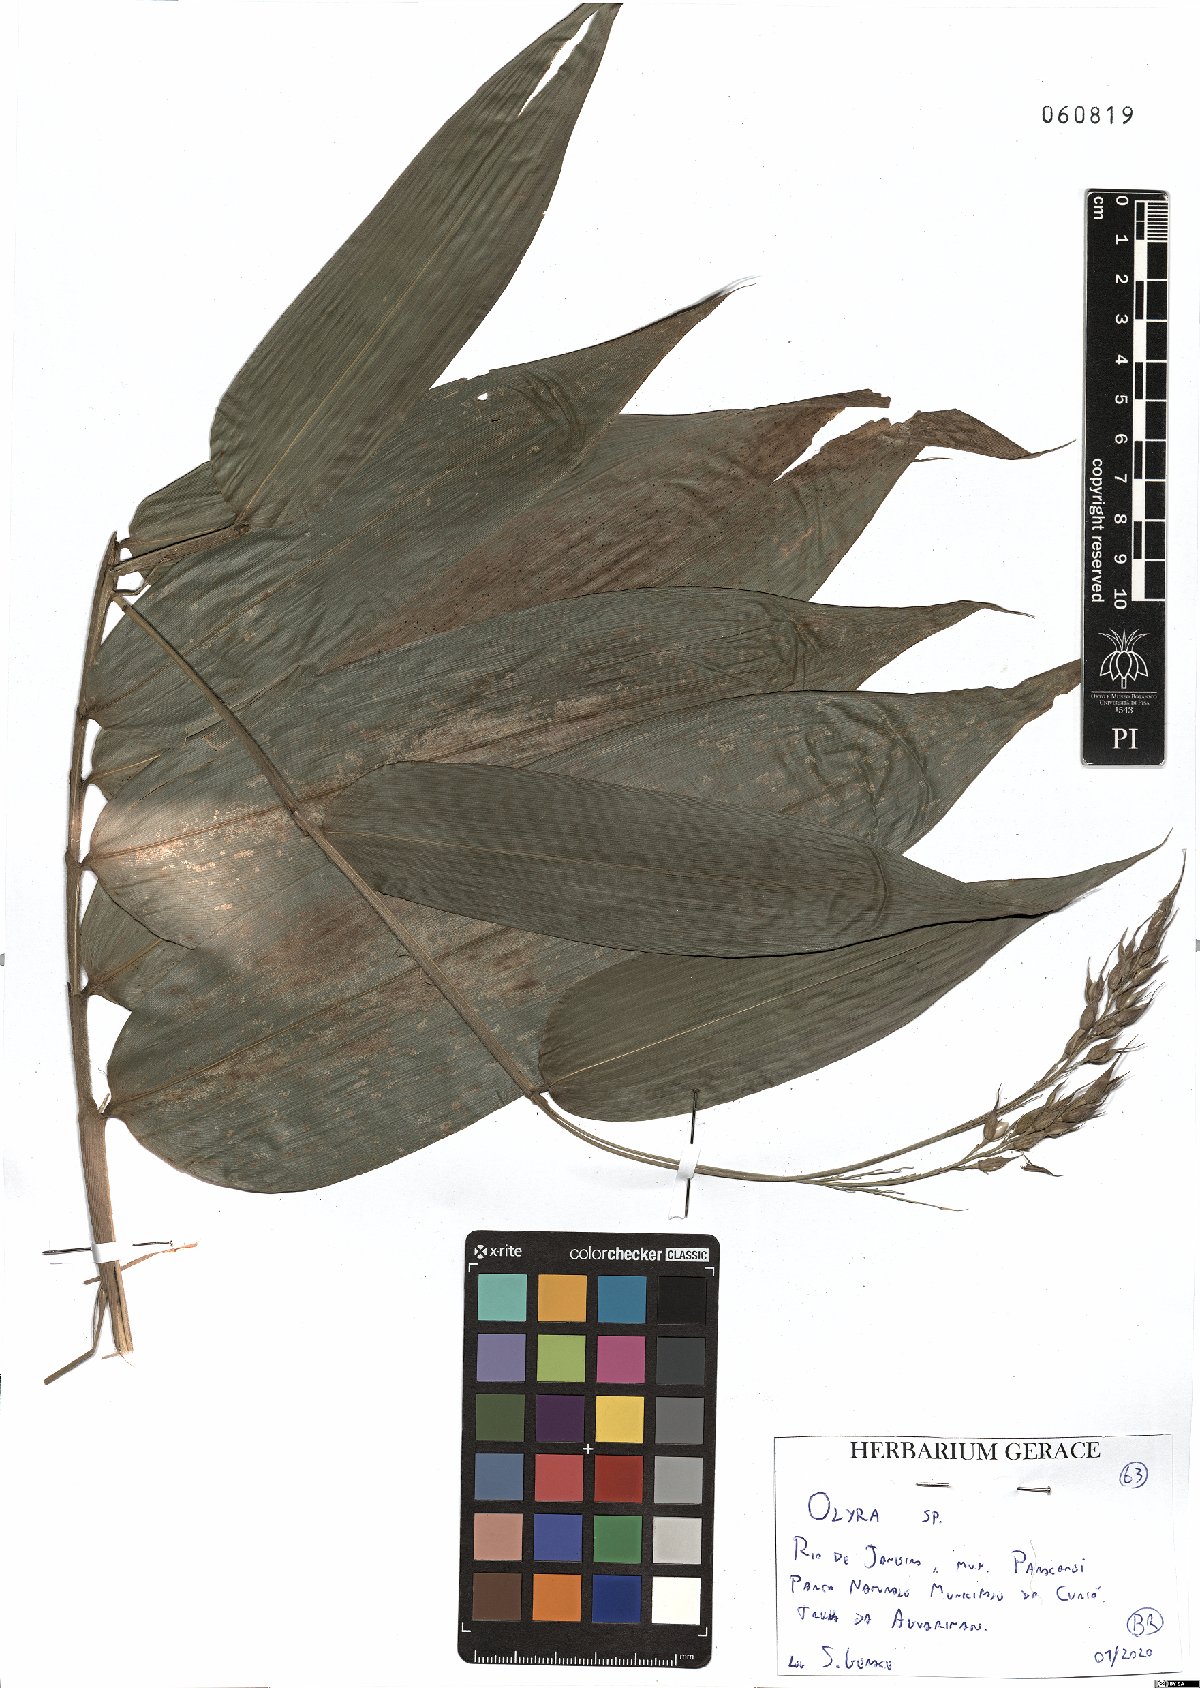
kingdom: Plantae
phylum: Tracheophyta
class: Liliopsida
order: Poales
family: Poaceae
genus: Olyra
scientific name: Olyra
